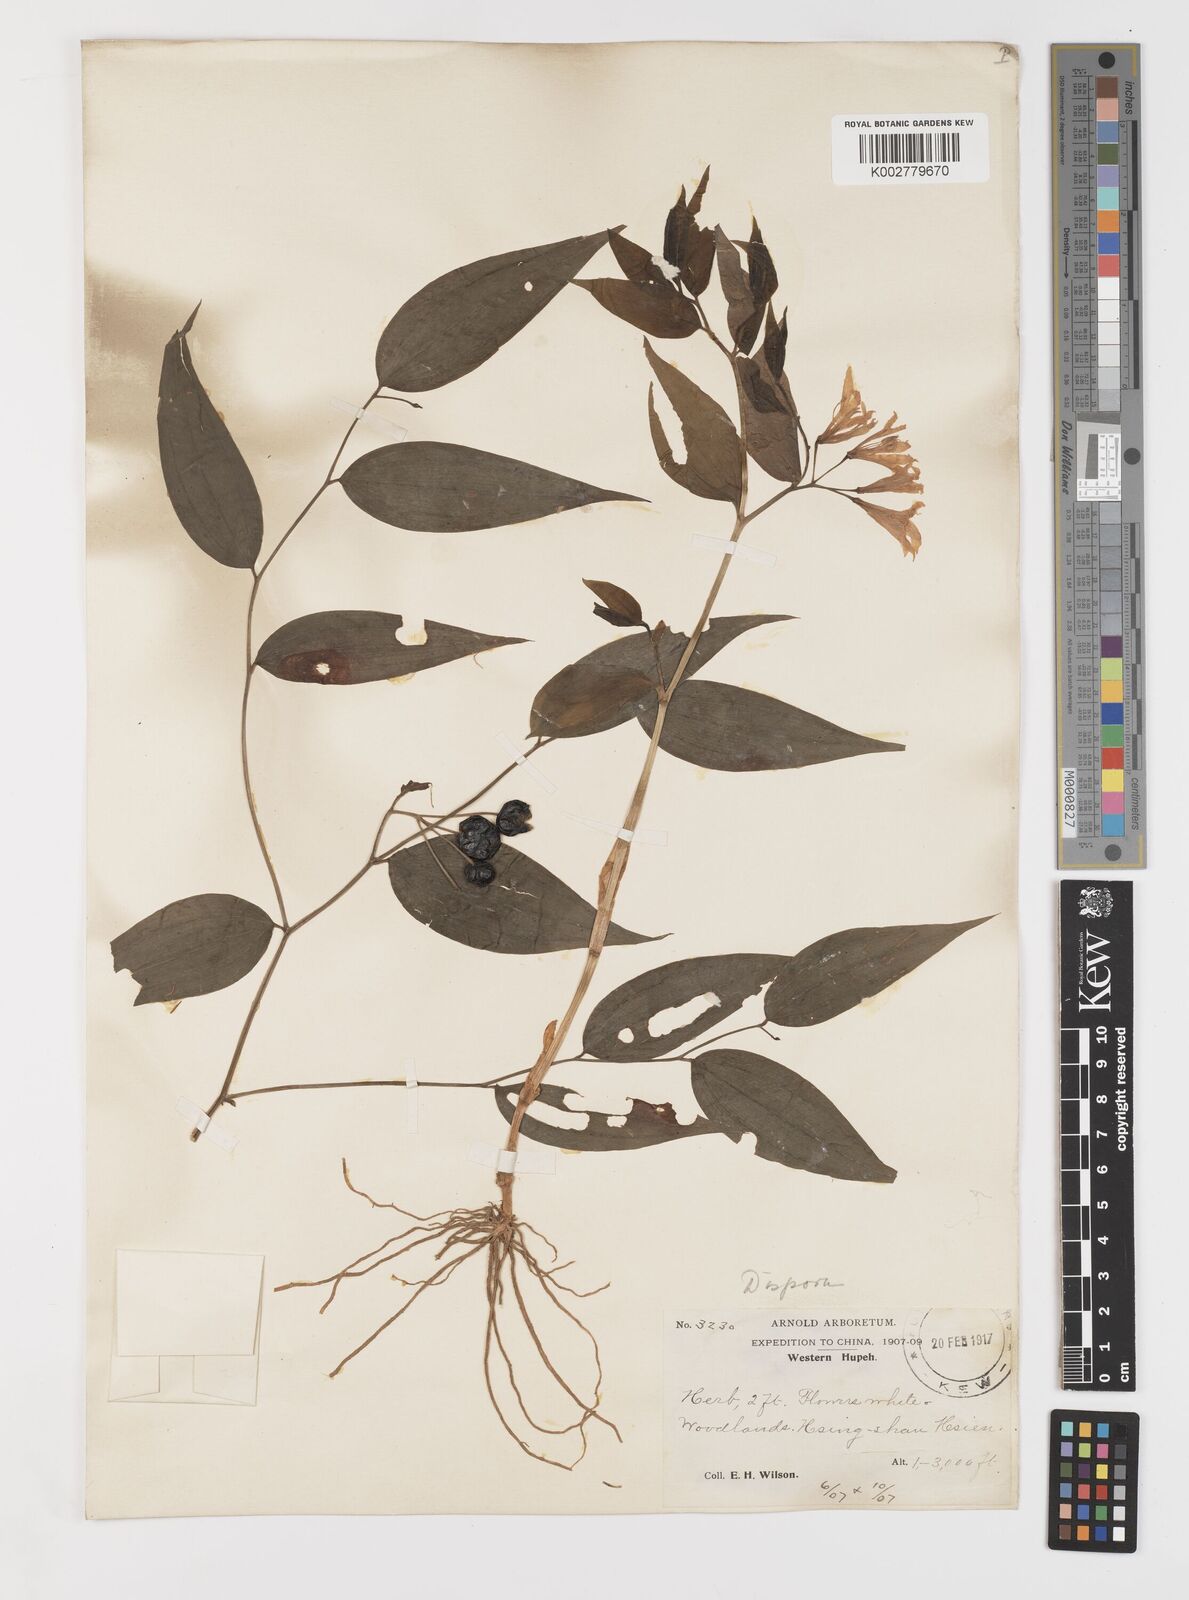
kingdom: Plantae
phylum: Tracheophyta
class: Liliopsida
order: Liliales
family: Colchicaceae
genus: Disporum
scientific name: Disporum cantoniense
